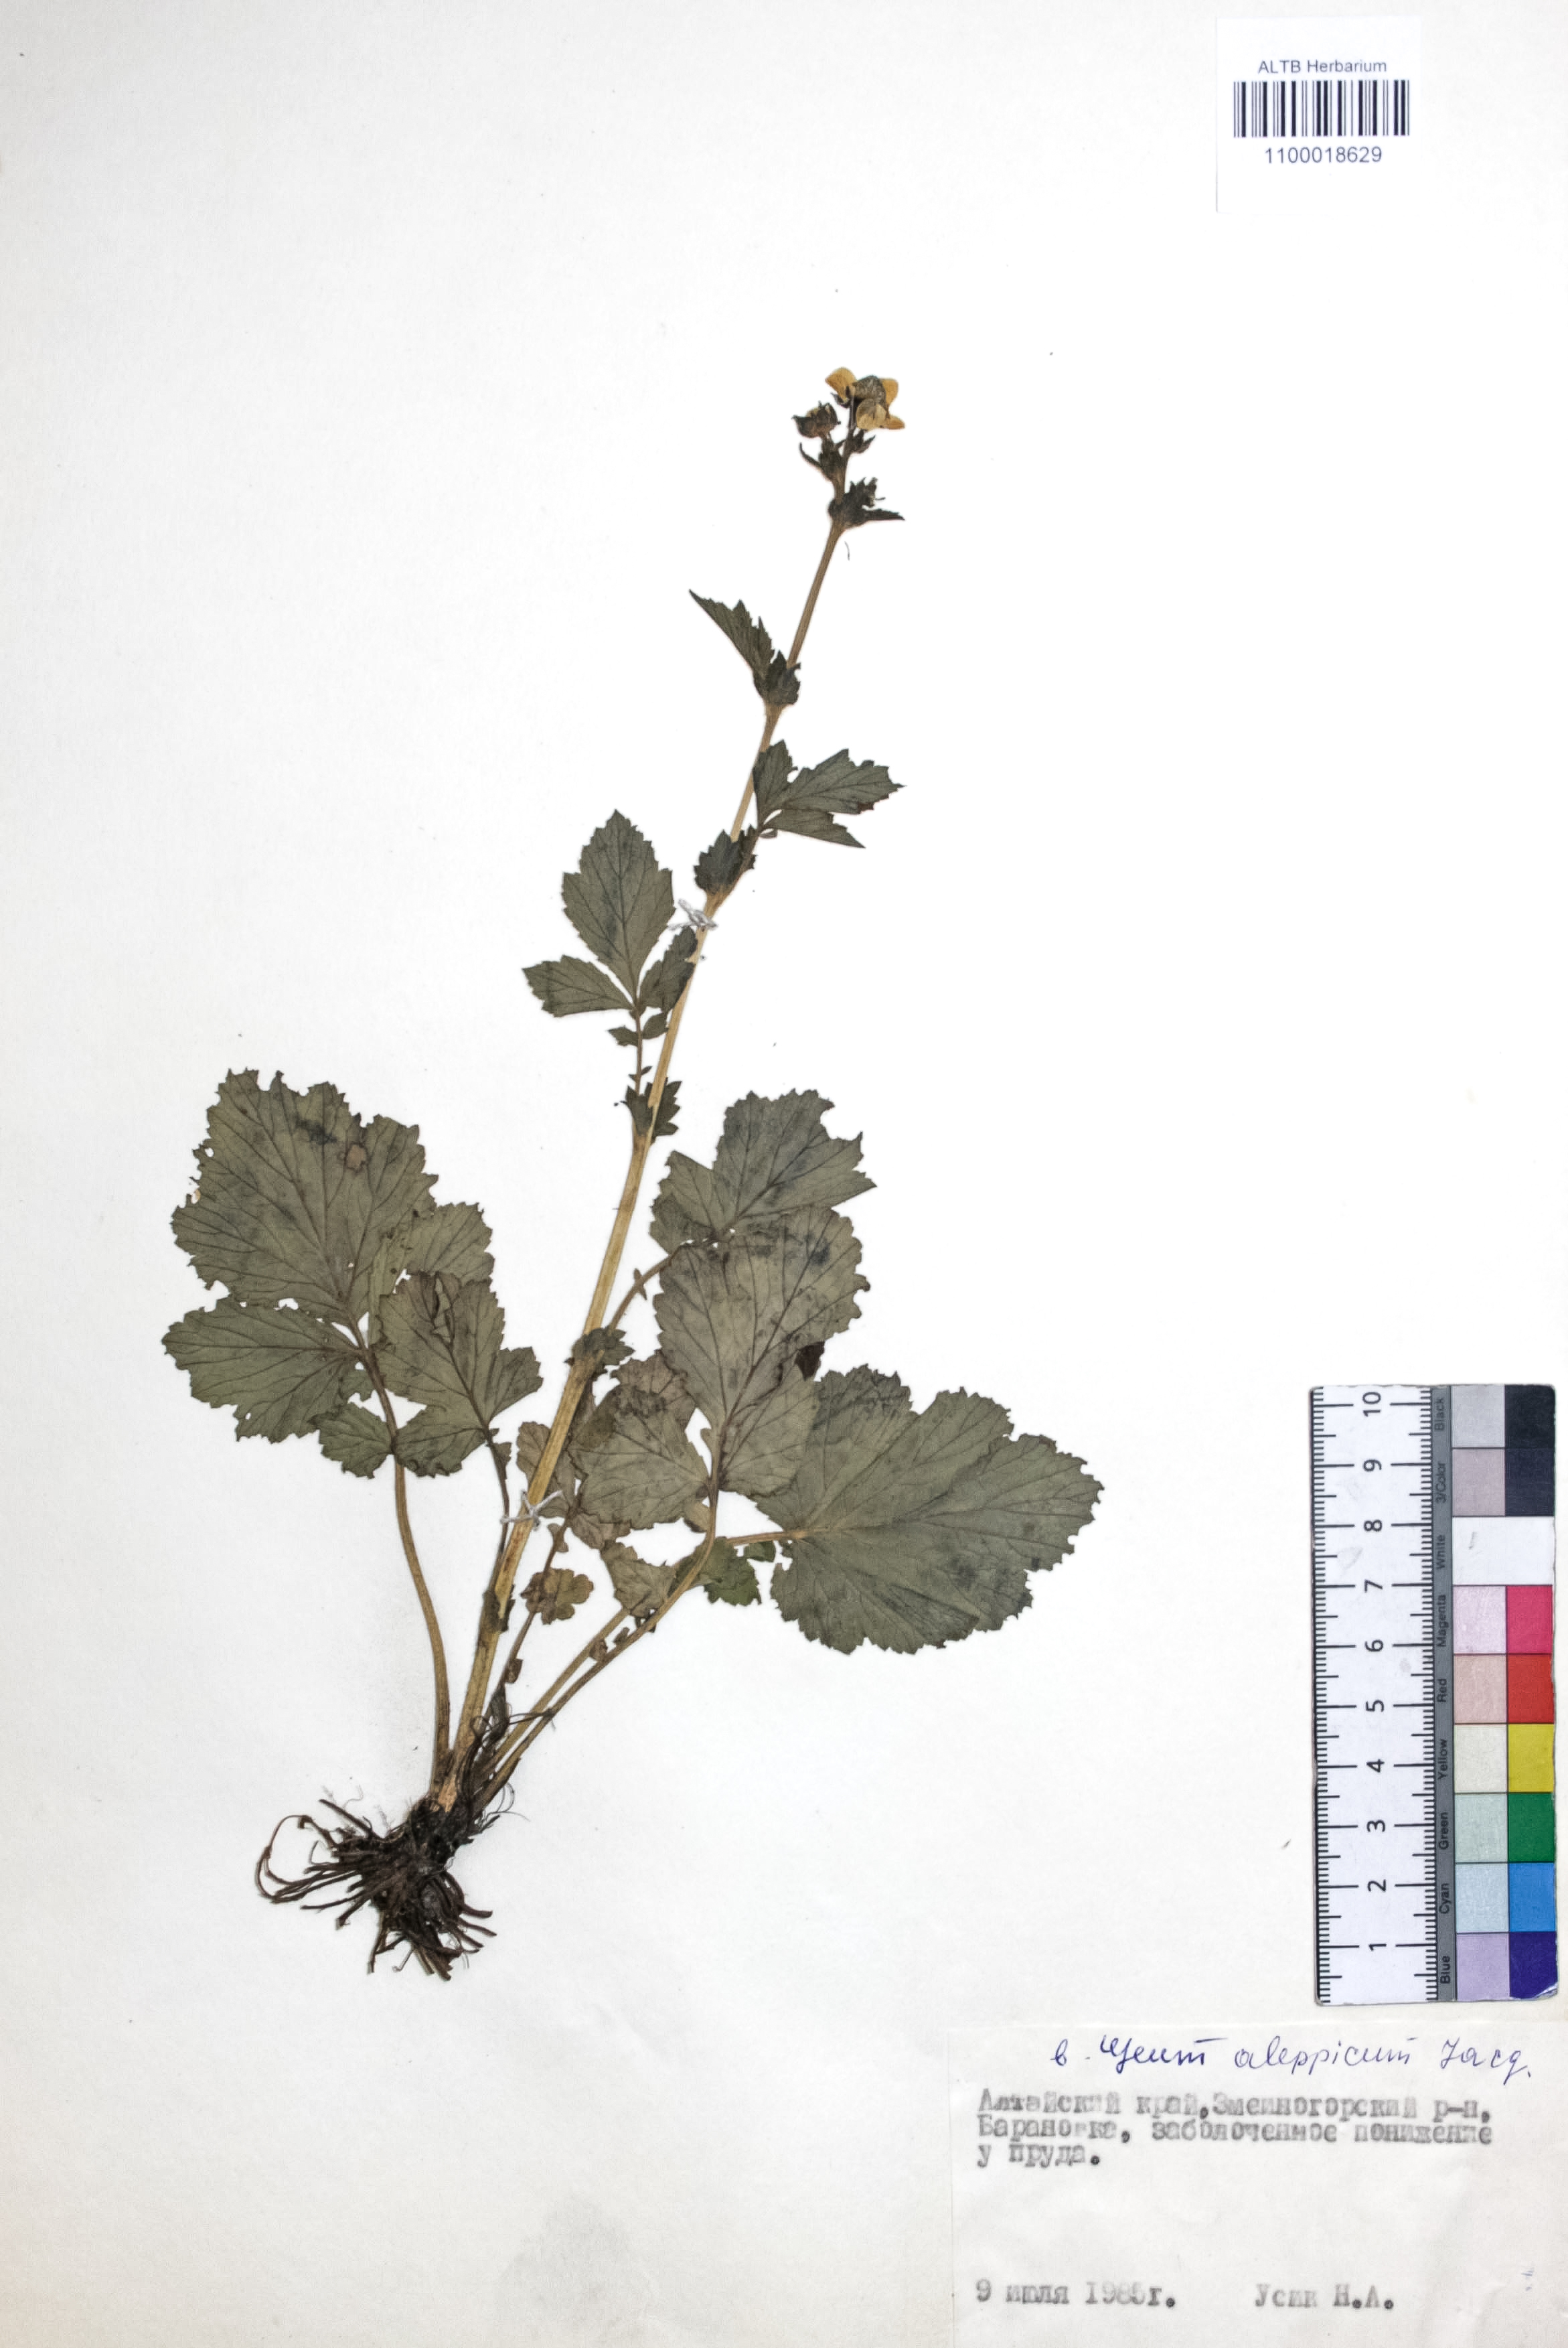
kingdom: Plantae
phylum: Tracheophyta
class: Magnoliopsida
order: Rosales
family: Rosaceae
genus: Geum
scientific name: Geum aleppicum
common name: Yellow avens
